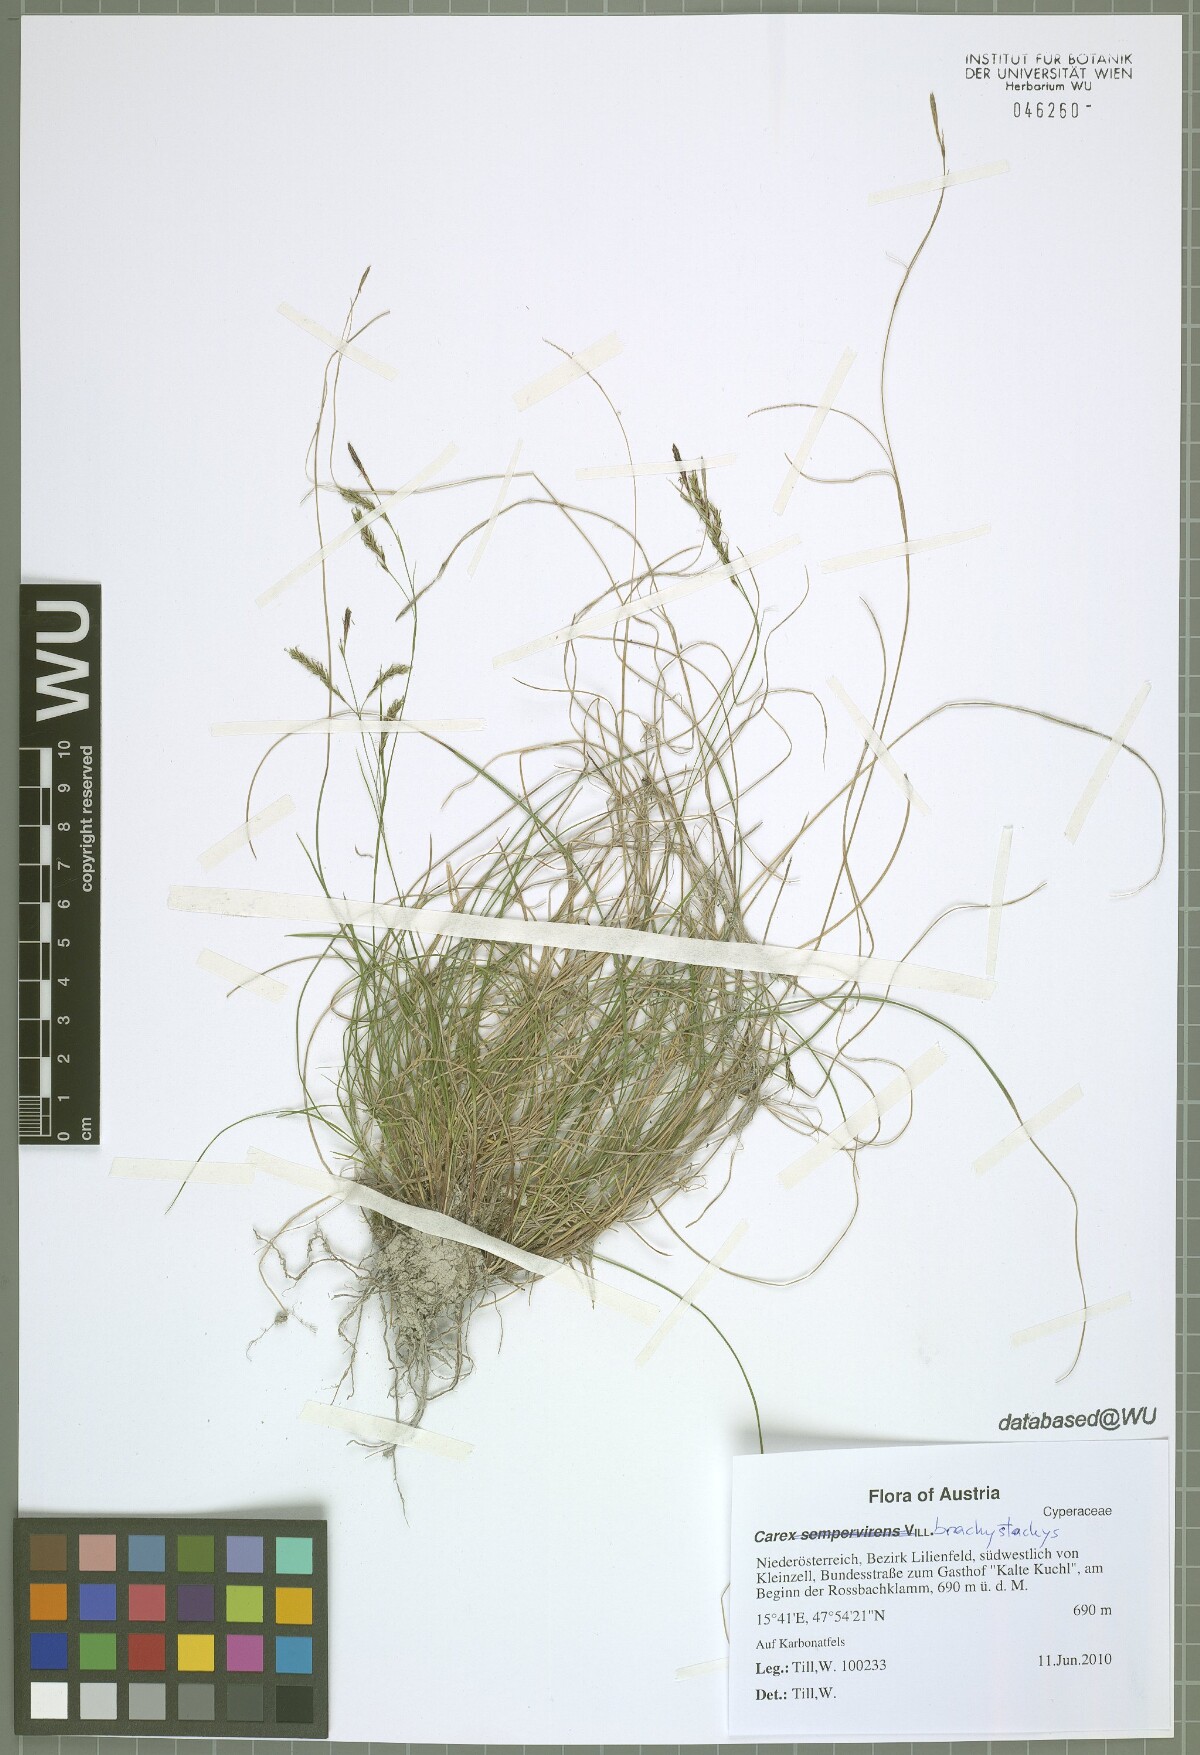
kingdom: Plantae
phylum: Tracheophyta
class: Liliopsida
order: Poales
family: Cyperaceae
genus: Carex
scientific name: Carex brachystachys
